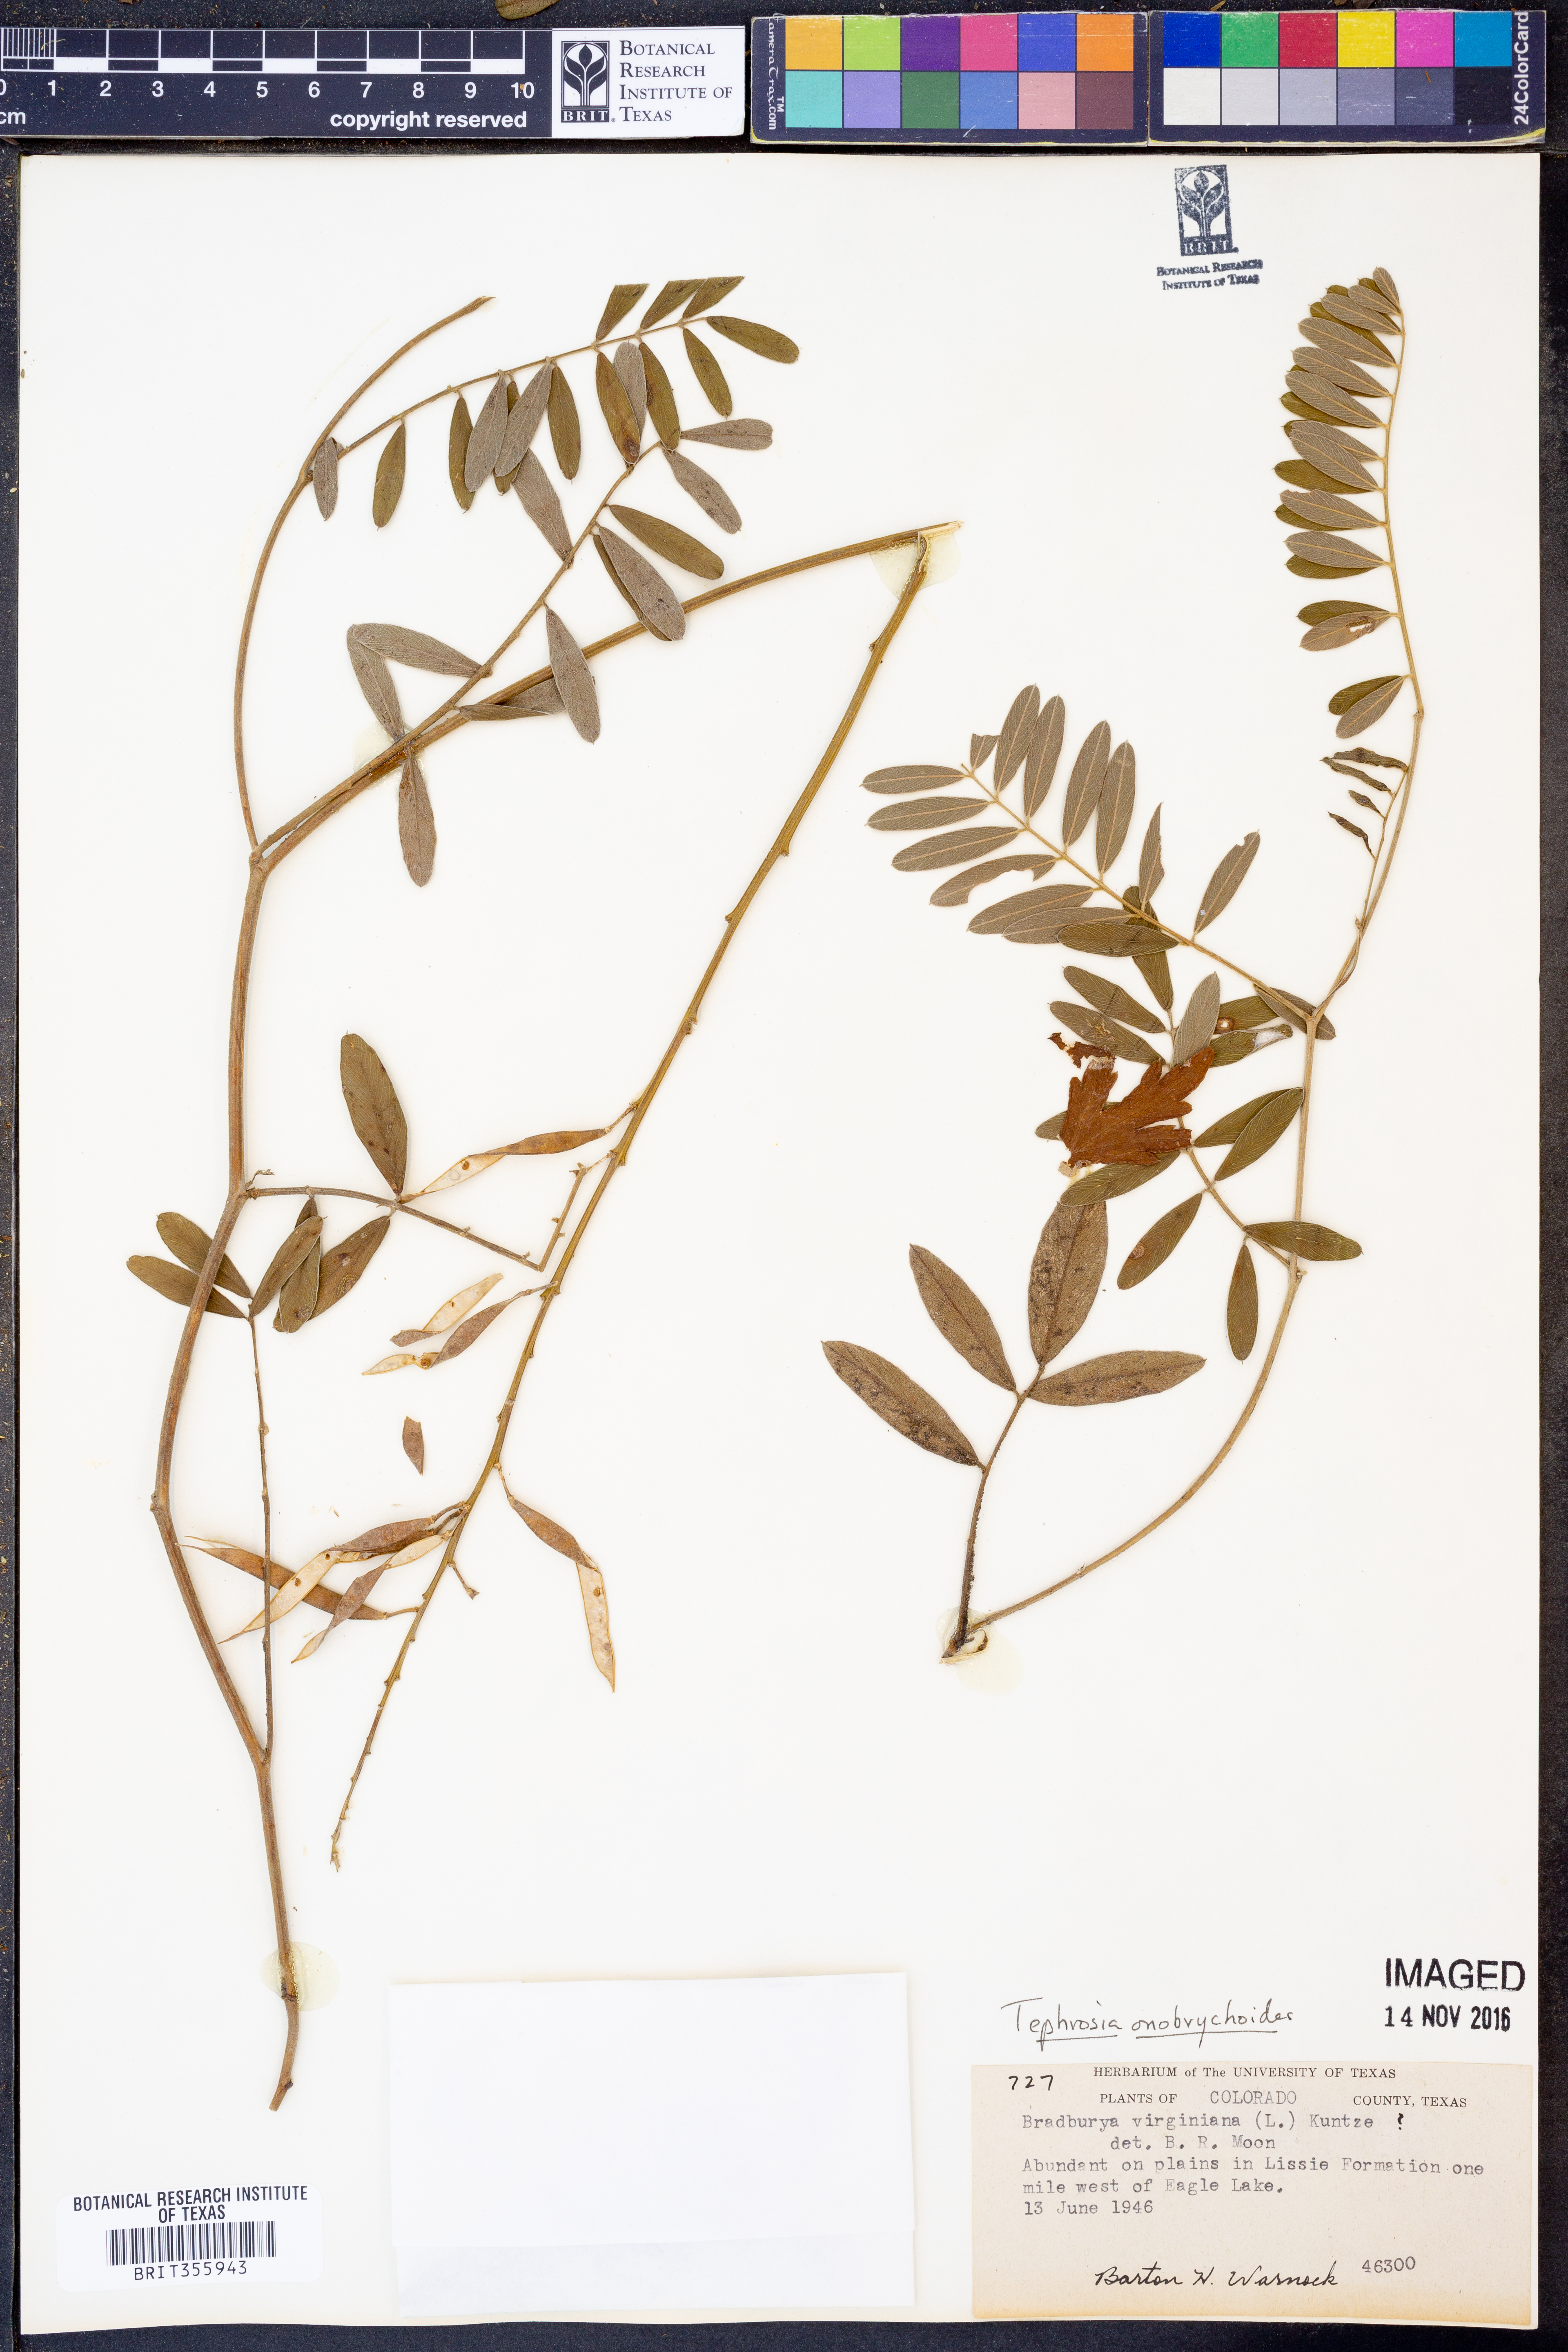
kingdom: Plantae
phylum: Tracheophyta
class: Magnoliopsida
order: Fabales
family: Fabaceae
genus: Tephrosia
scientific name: Tephrosia onobrychoides
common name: Multi-bloom hoary-pea
